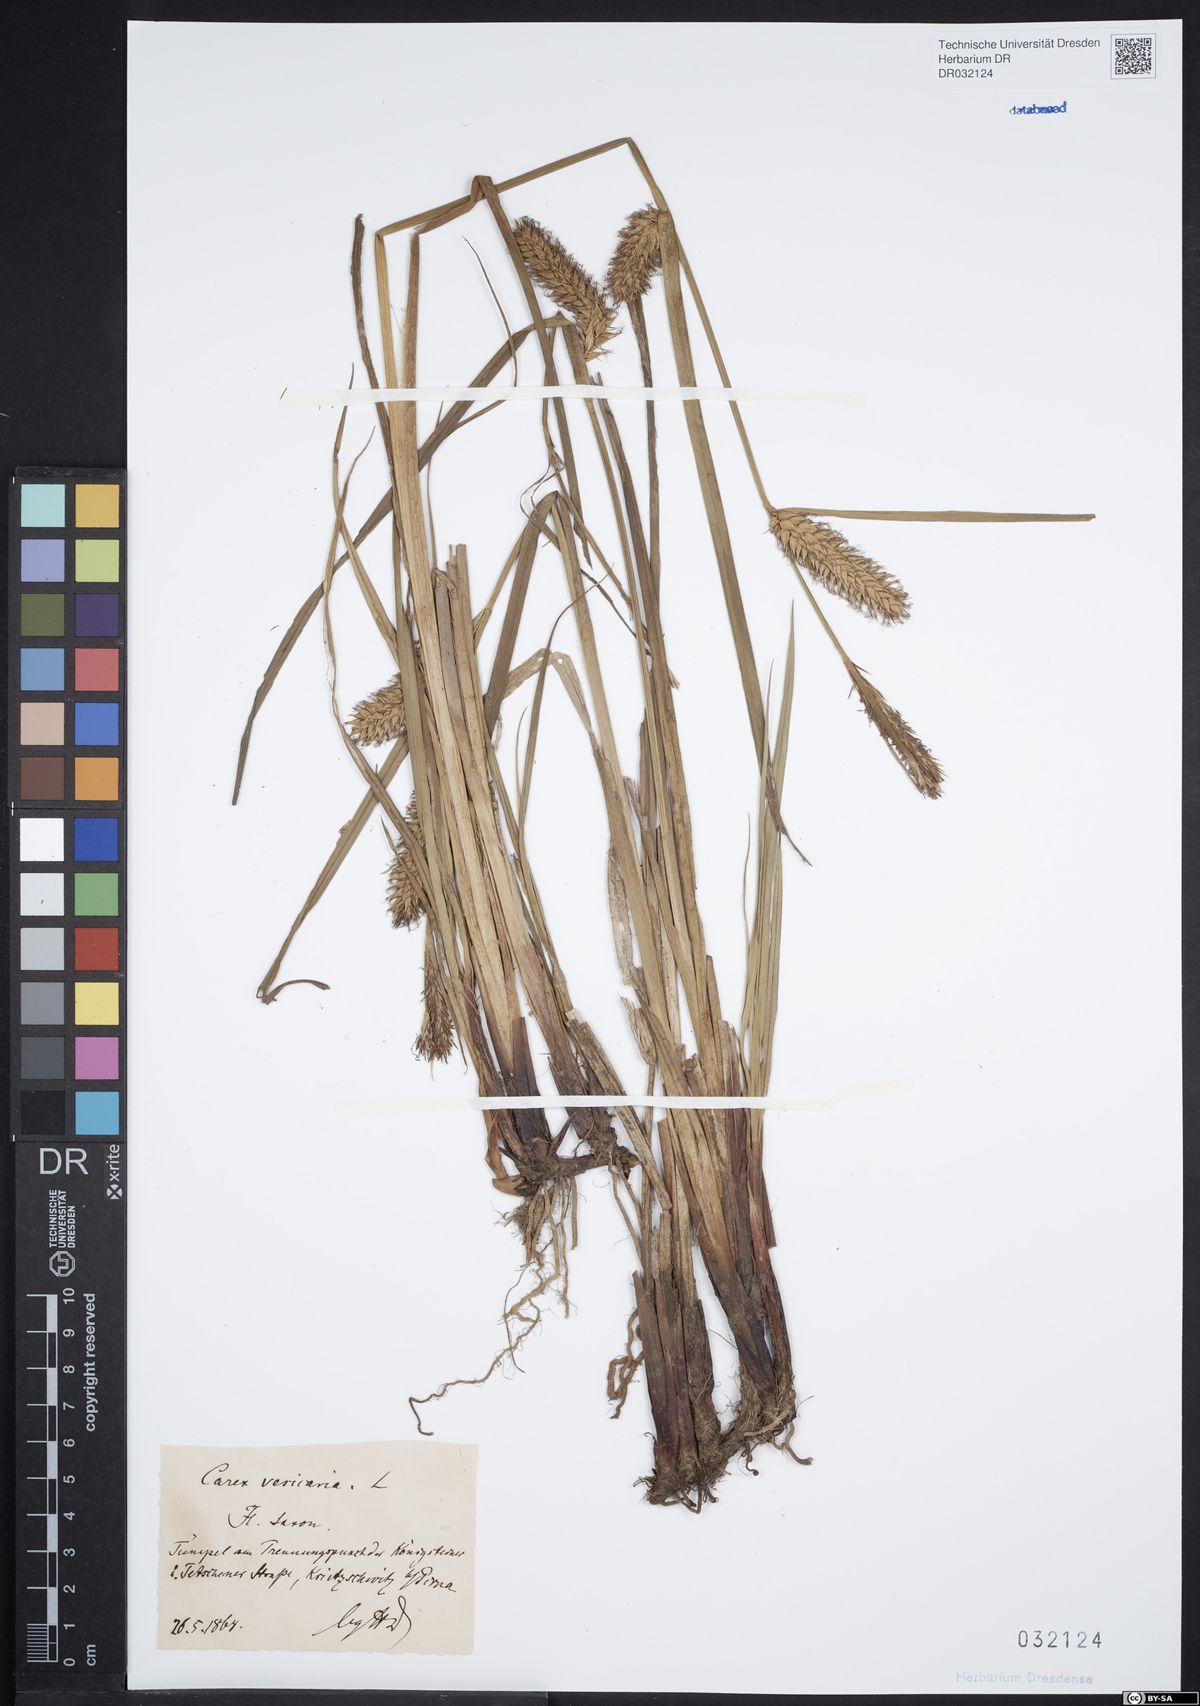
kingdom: Plantae
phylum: Tracheophyta
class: Liliopsida
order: Poales
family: Cyperaceae
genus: Carex
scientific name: Carex vesicaria
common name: Bladder-sedge
